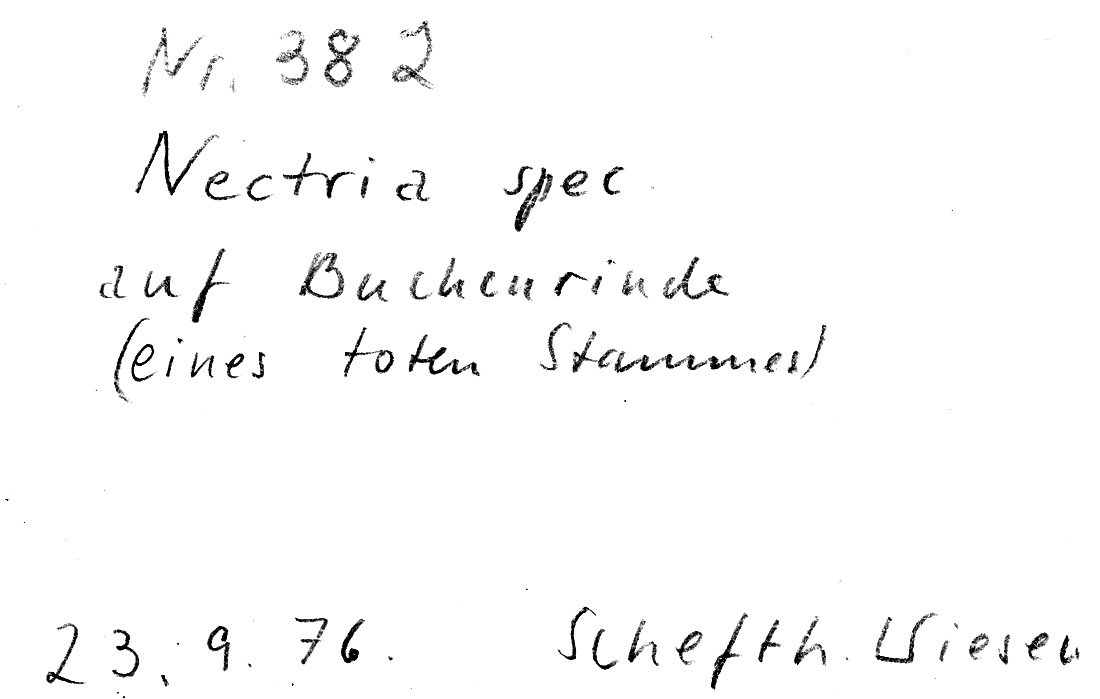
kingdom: Fungi
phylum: Ascomycota
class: Sordariomycetes
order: Hypocreales
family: Nectriaceae
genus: Nectria
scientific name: Nectria
